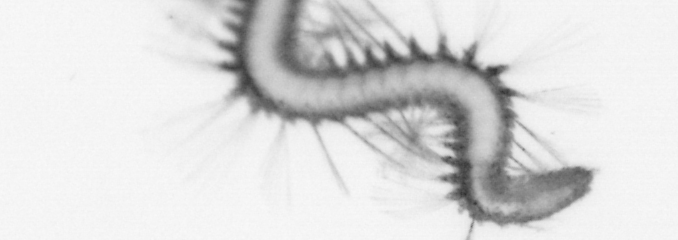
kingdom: Animalia
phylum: Annelida
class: Polychaeta
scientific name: Polychaeta
